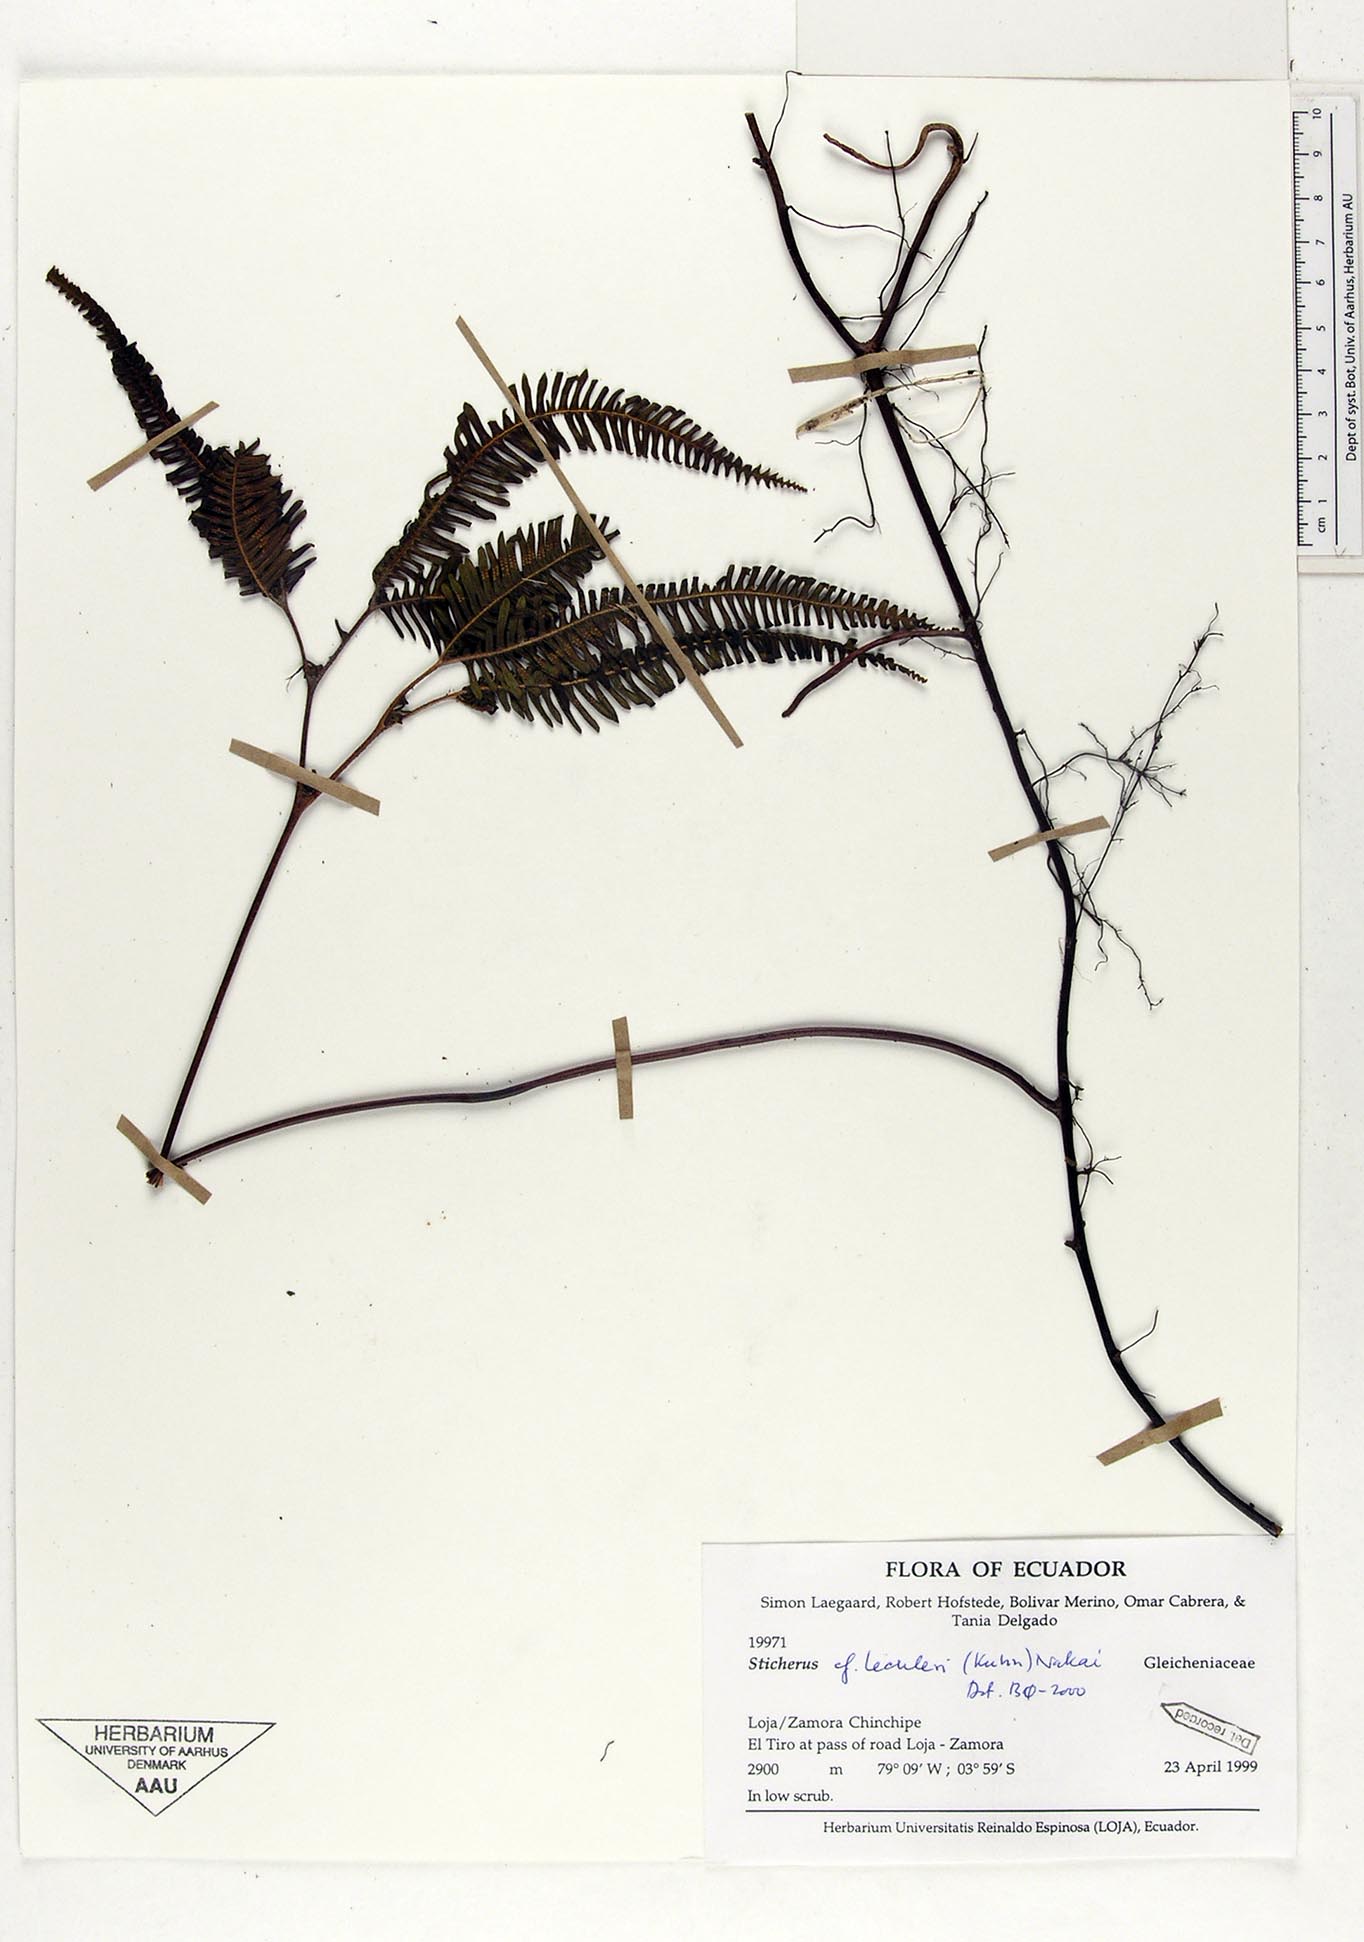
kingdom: Plantae
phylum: Tracheophyta
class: Polypodiopsida
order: Gleicheniales
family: Gleicheniaceae
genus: Sticherus
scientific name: Sticherus lechleri
